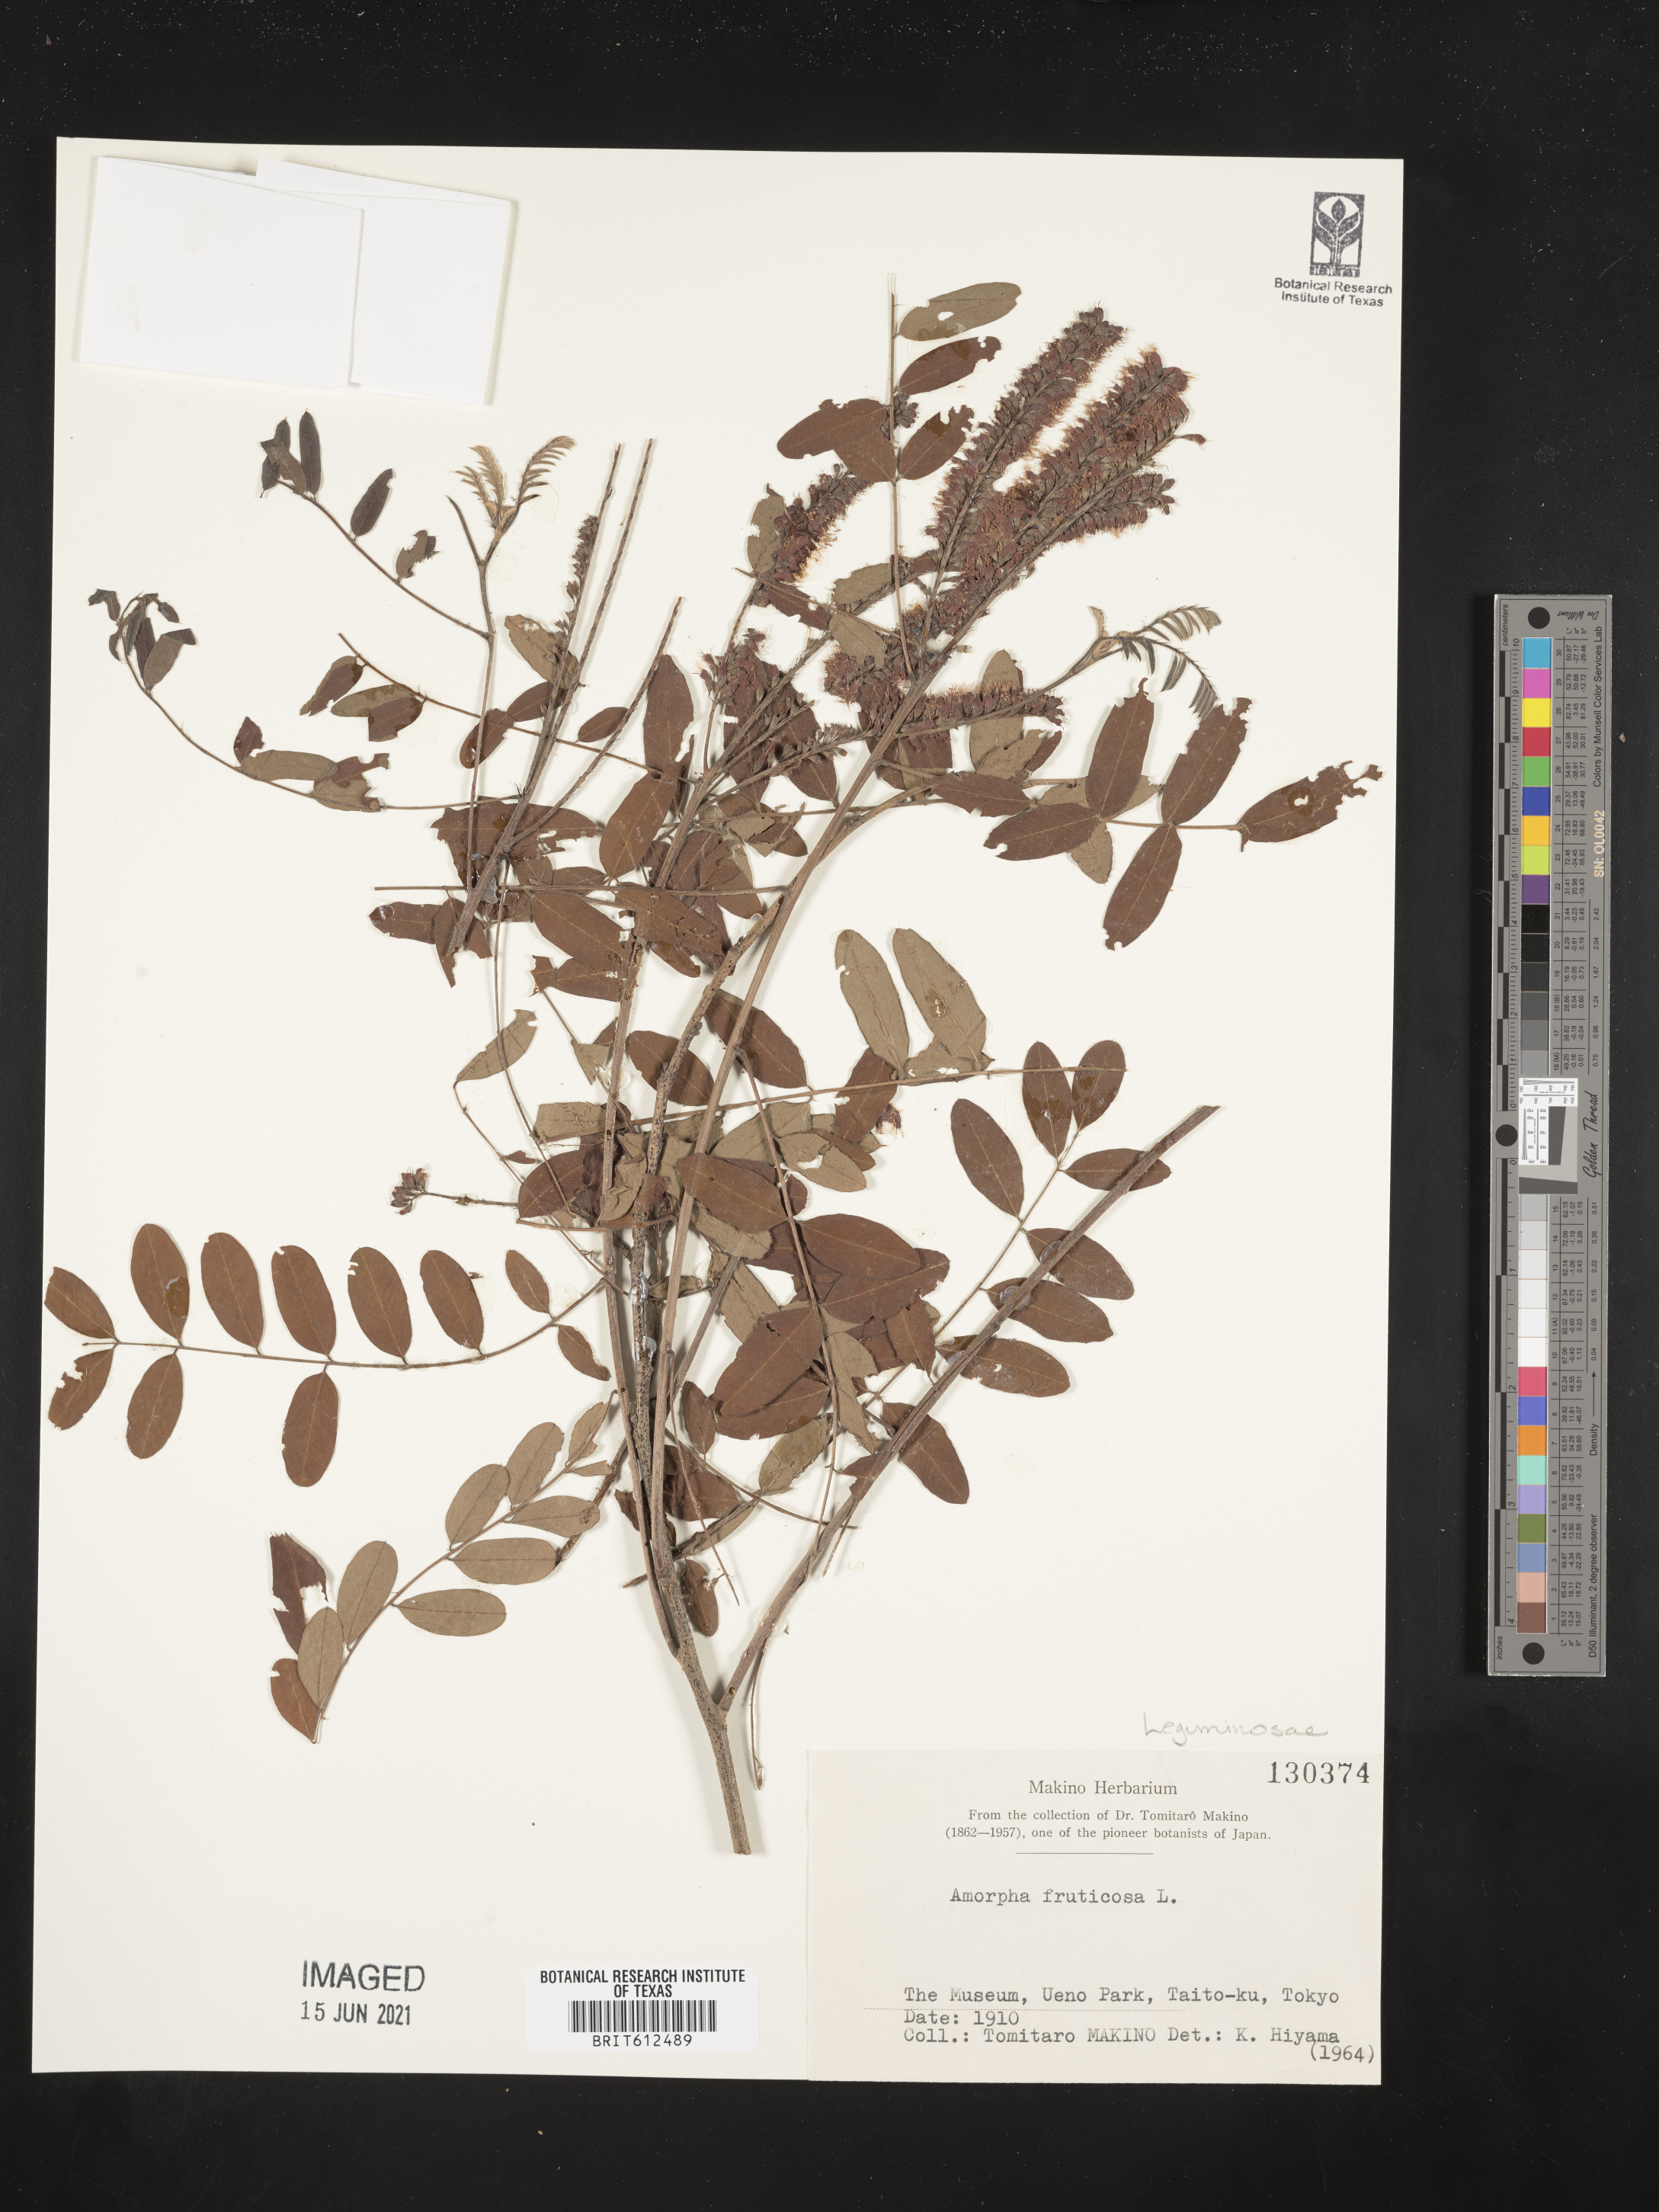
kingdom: Plantae
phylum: Tracheophyta
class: Magnoliopsida
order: Fabales
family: Fabaceae
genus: Amorpha
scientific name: Amorpha fruticosa
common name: False indigo
